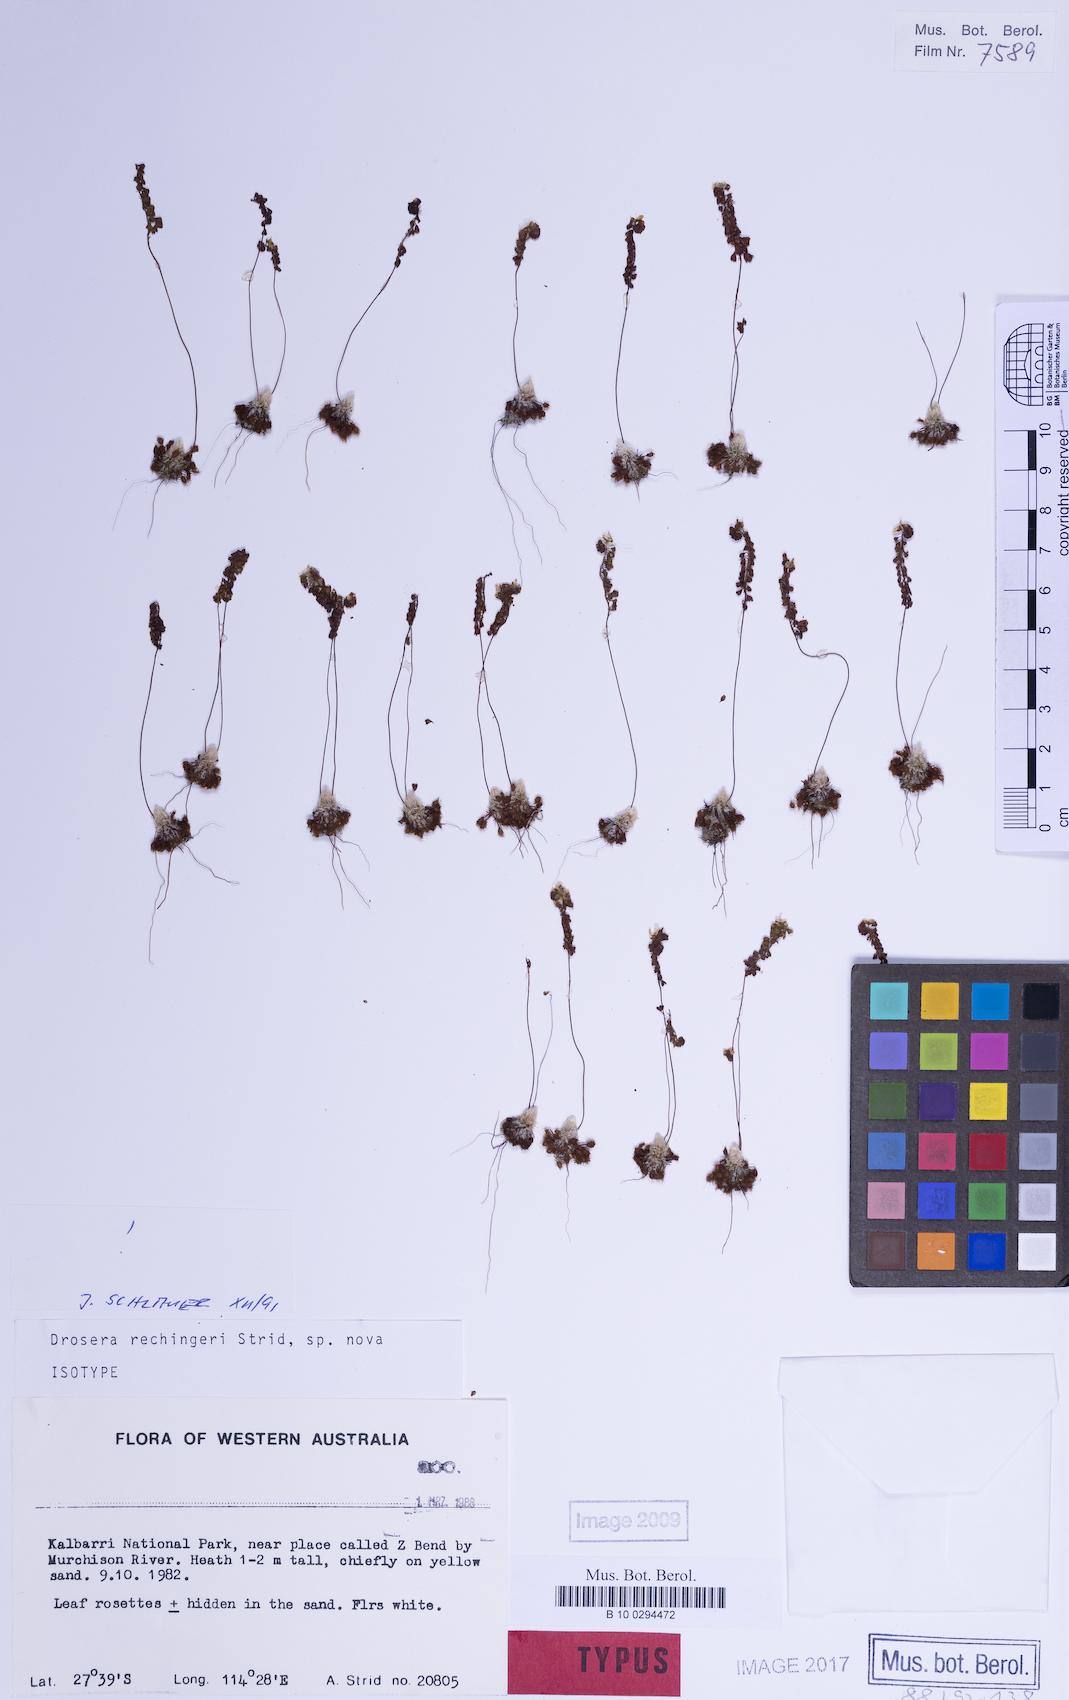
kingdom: Plantae
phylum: Tracheophyta
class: Magnoliopsida
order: Caryophyllales
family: Droseraceae
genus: Drosera
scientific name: Drosera rechingeri
